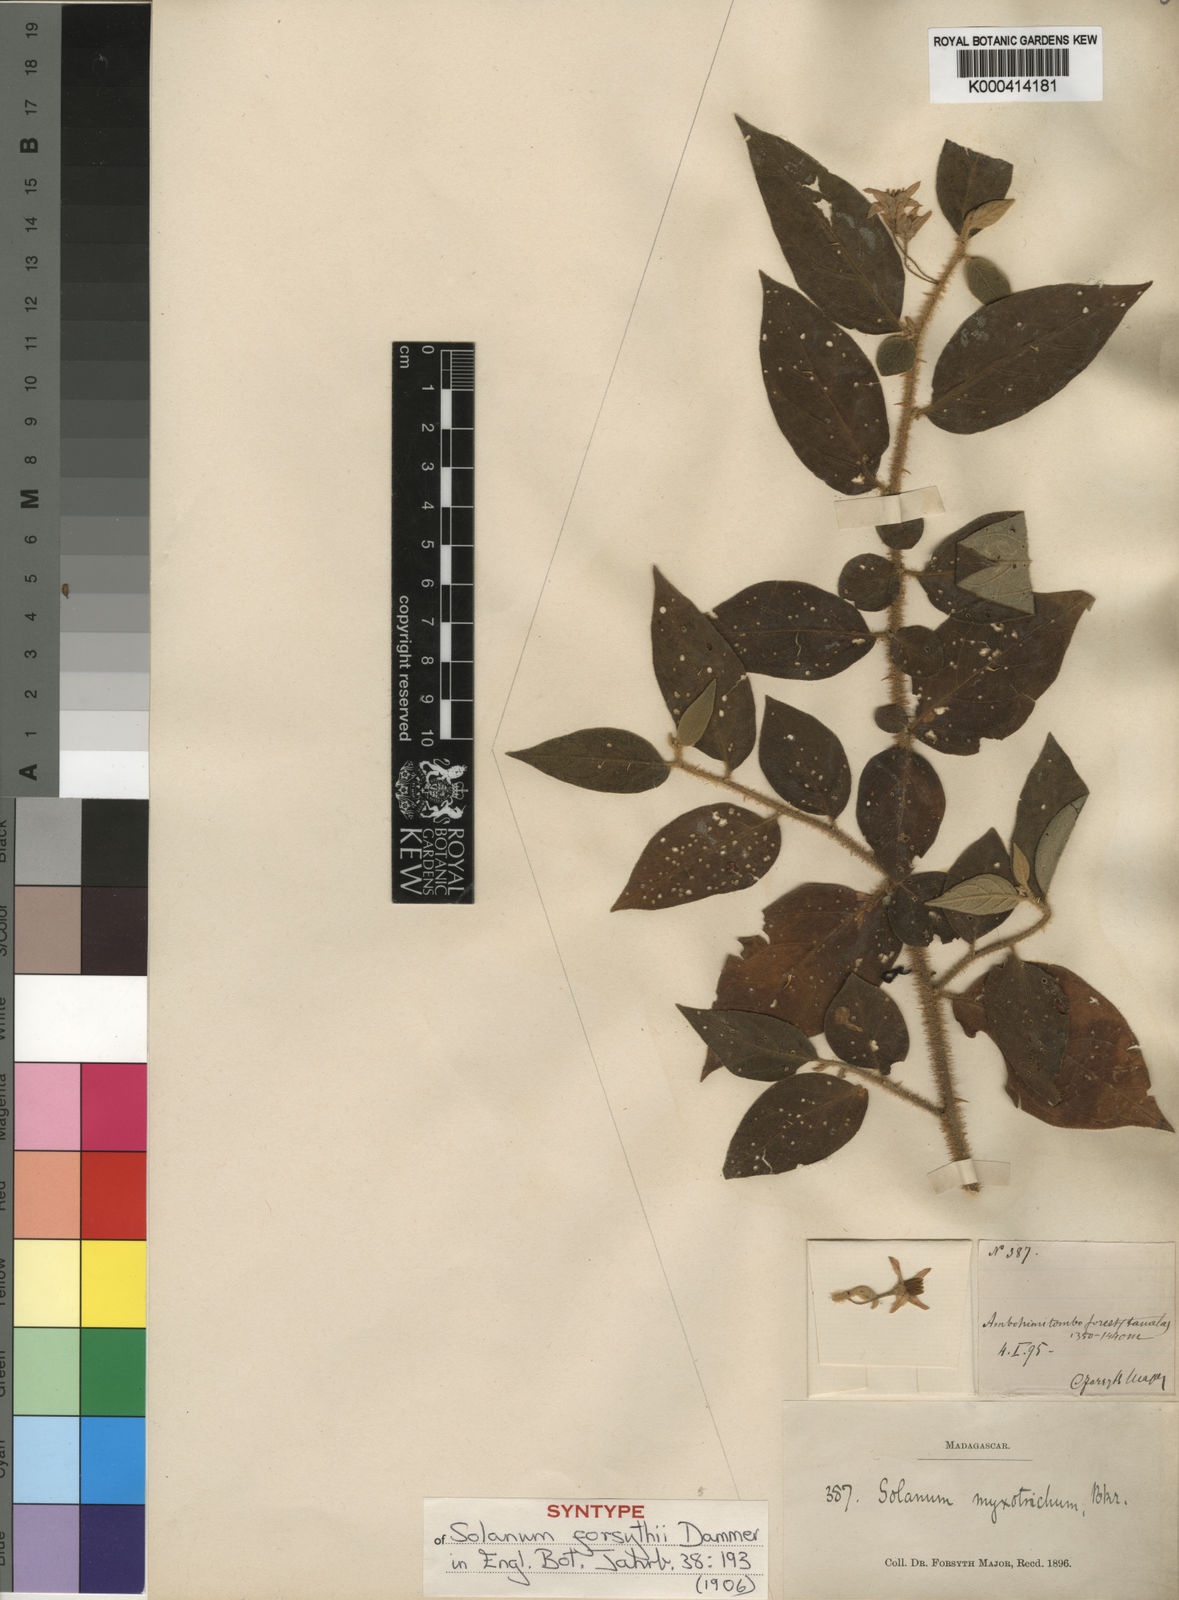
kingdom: Plantae
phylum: Tracheophyta
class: Magnoliopsida
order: Solanales
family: Solanaceae
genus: Solanum
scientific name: Solanum myoxotrichum
